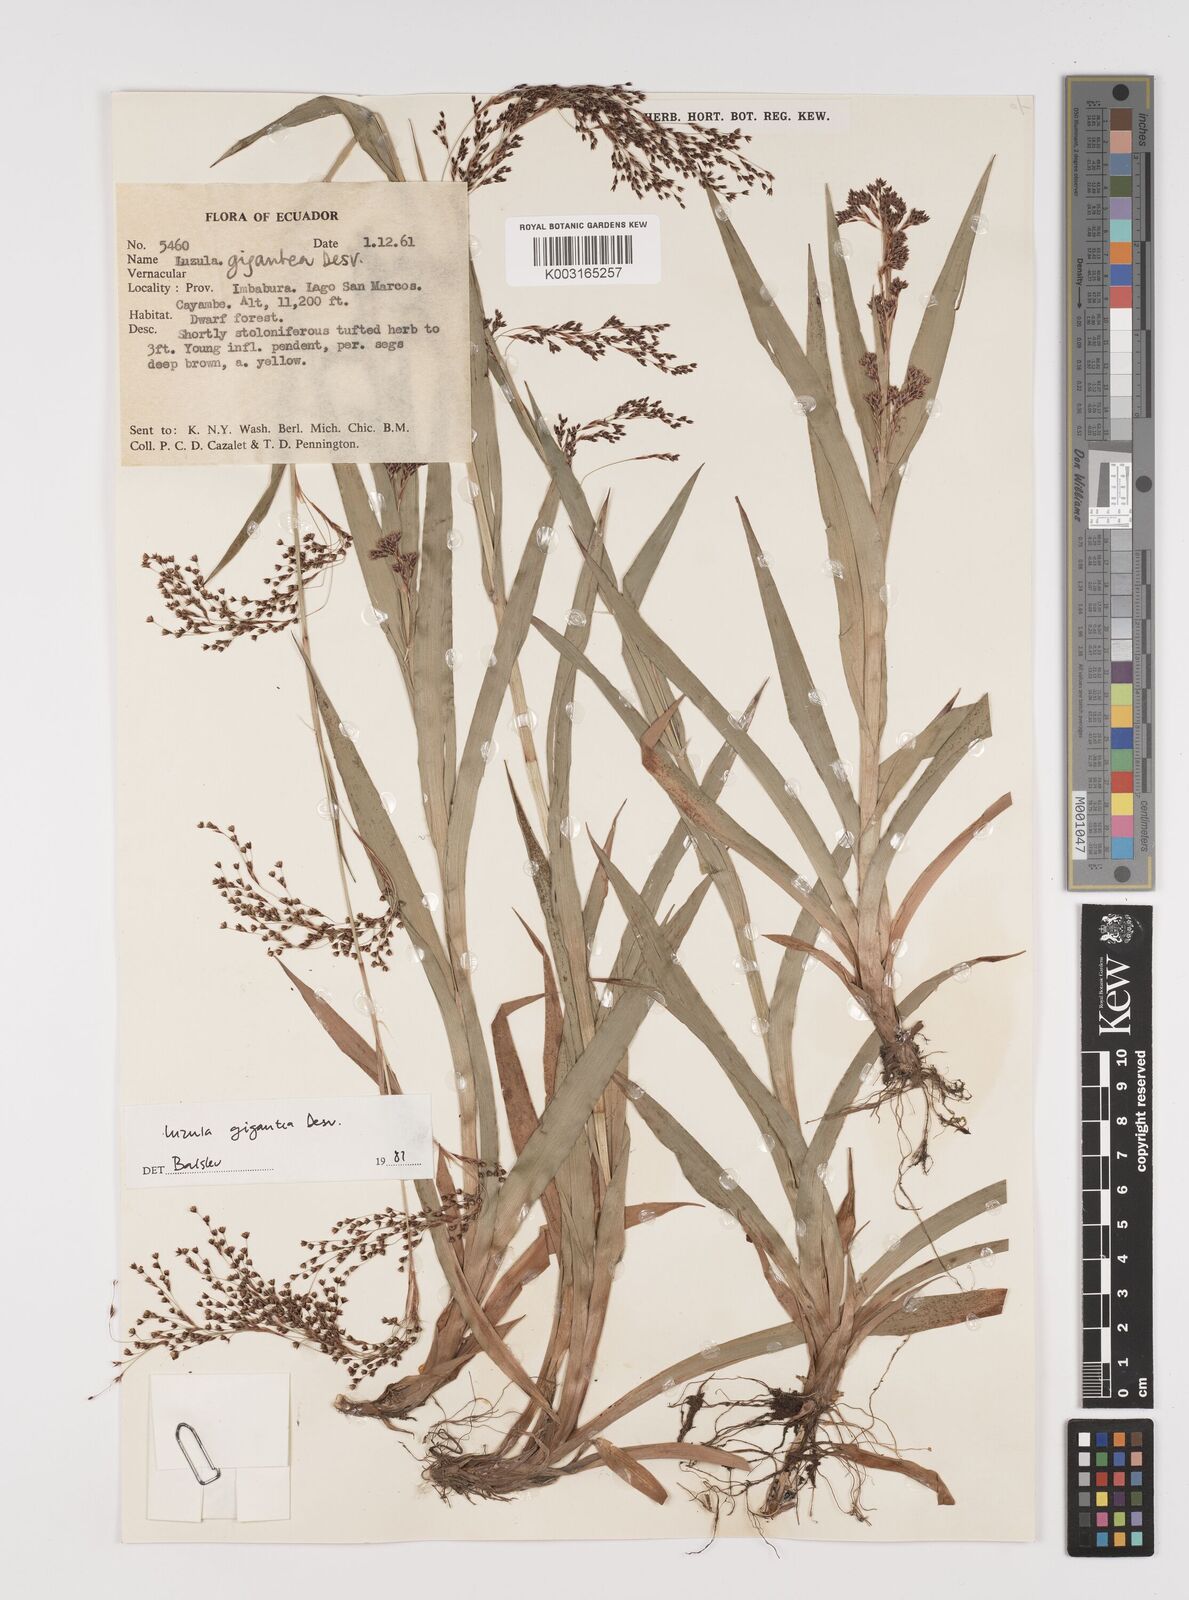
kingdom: Plantae
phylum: Tracheophyta
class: Liliopsida
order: Poales
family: Juncaceae
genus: Luzula
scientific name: Luzula gigantea
